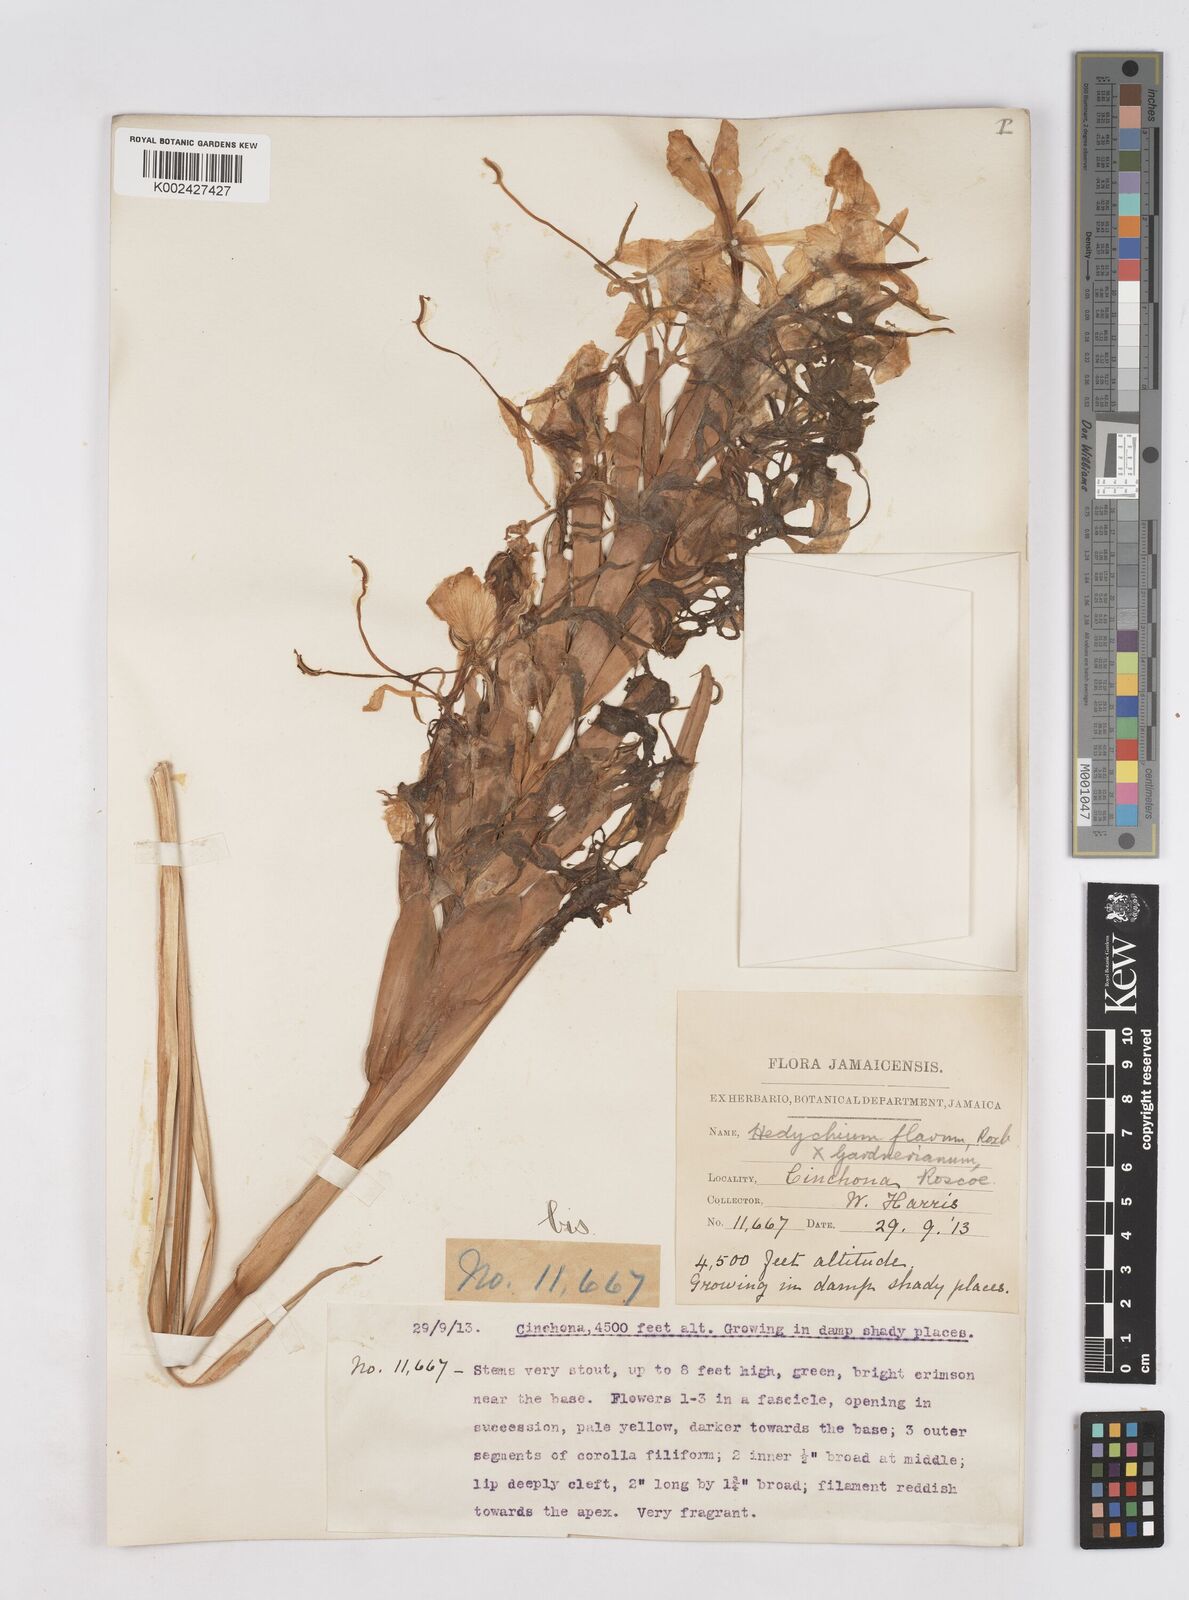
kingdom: Plantae
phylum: Tracheophyta
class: Liliopsida
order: Zingiberales
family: Zingiberaceae
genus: Hedychium
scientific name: Hedychium
